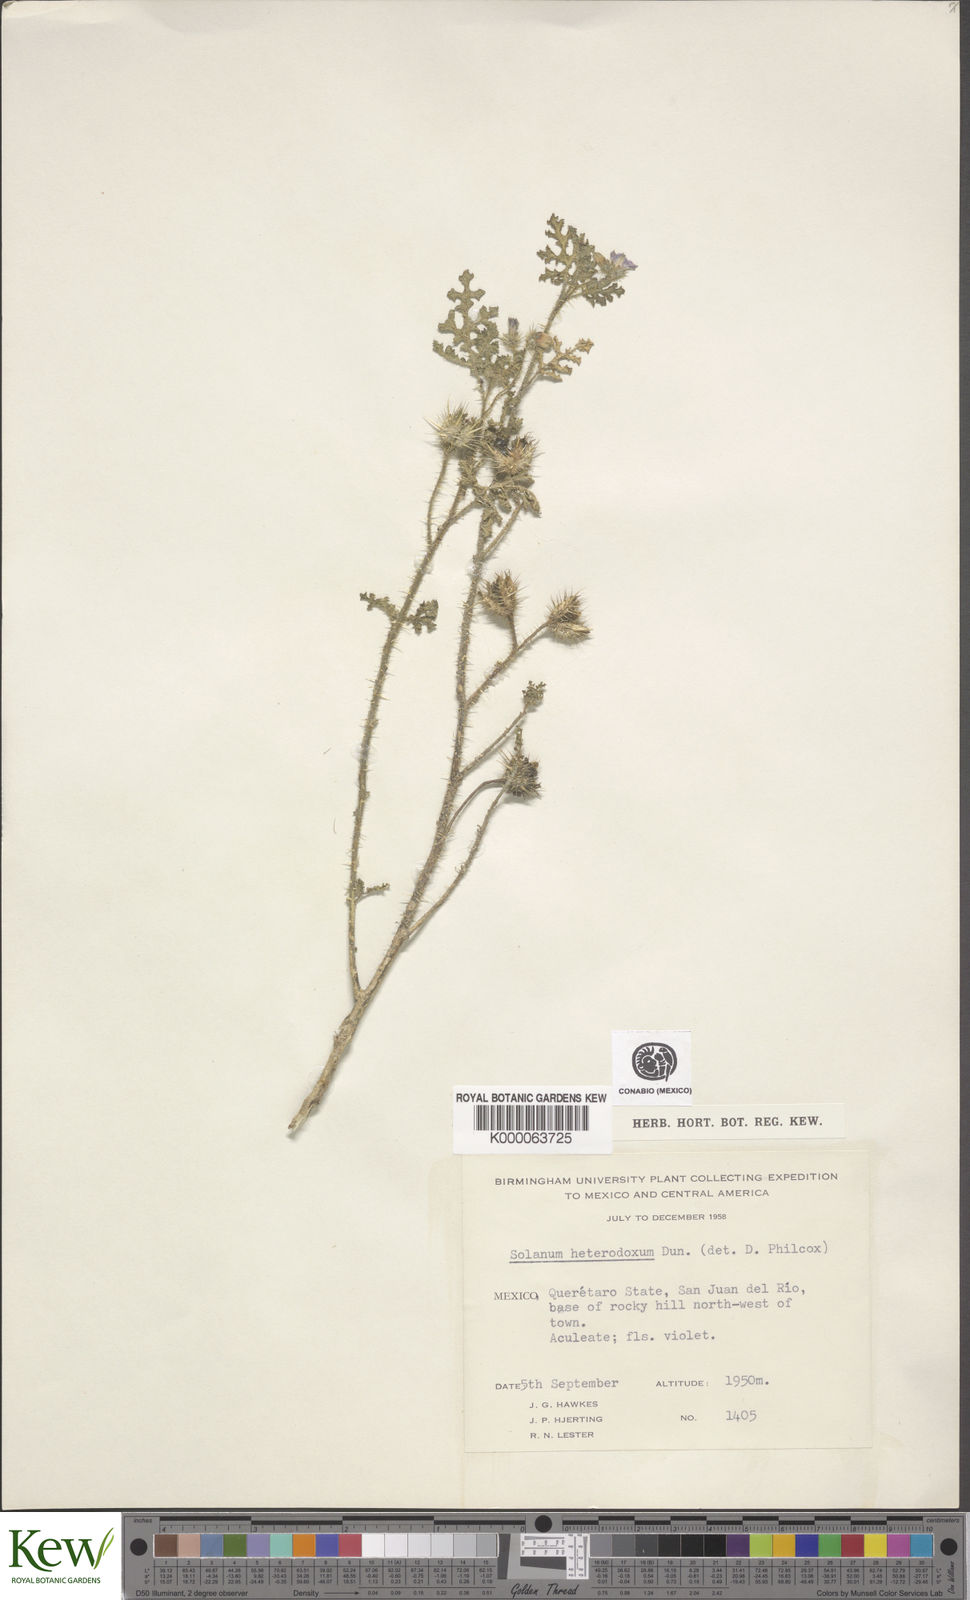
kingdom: Plantae
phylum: Tracheophyta
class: Magnoliopsida
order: Solanales
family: Solanaceae
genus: Solanum
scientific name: Solanum heterodoxum
